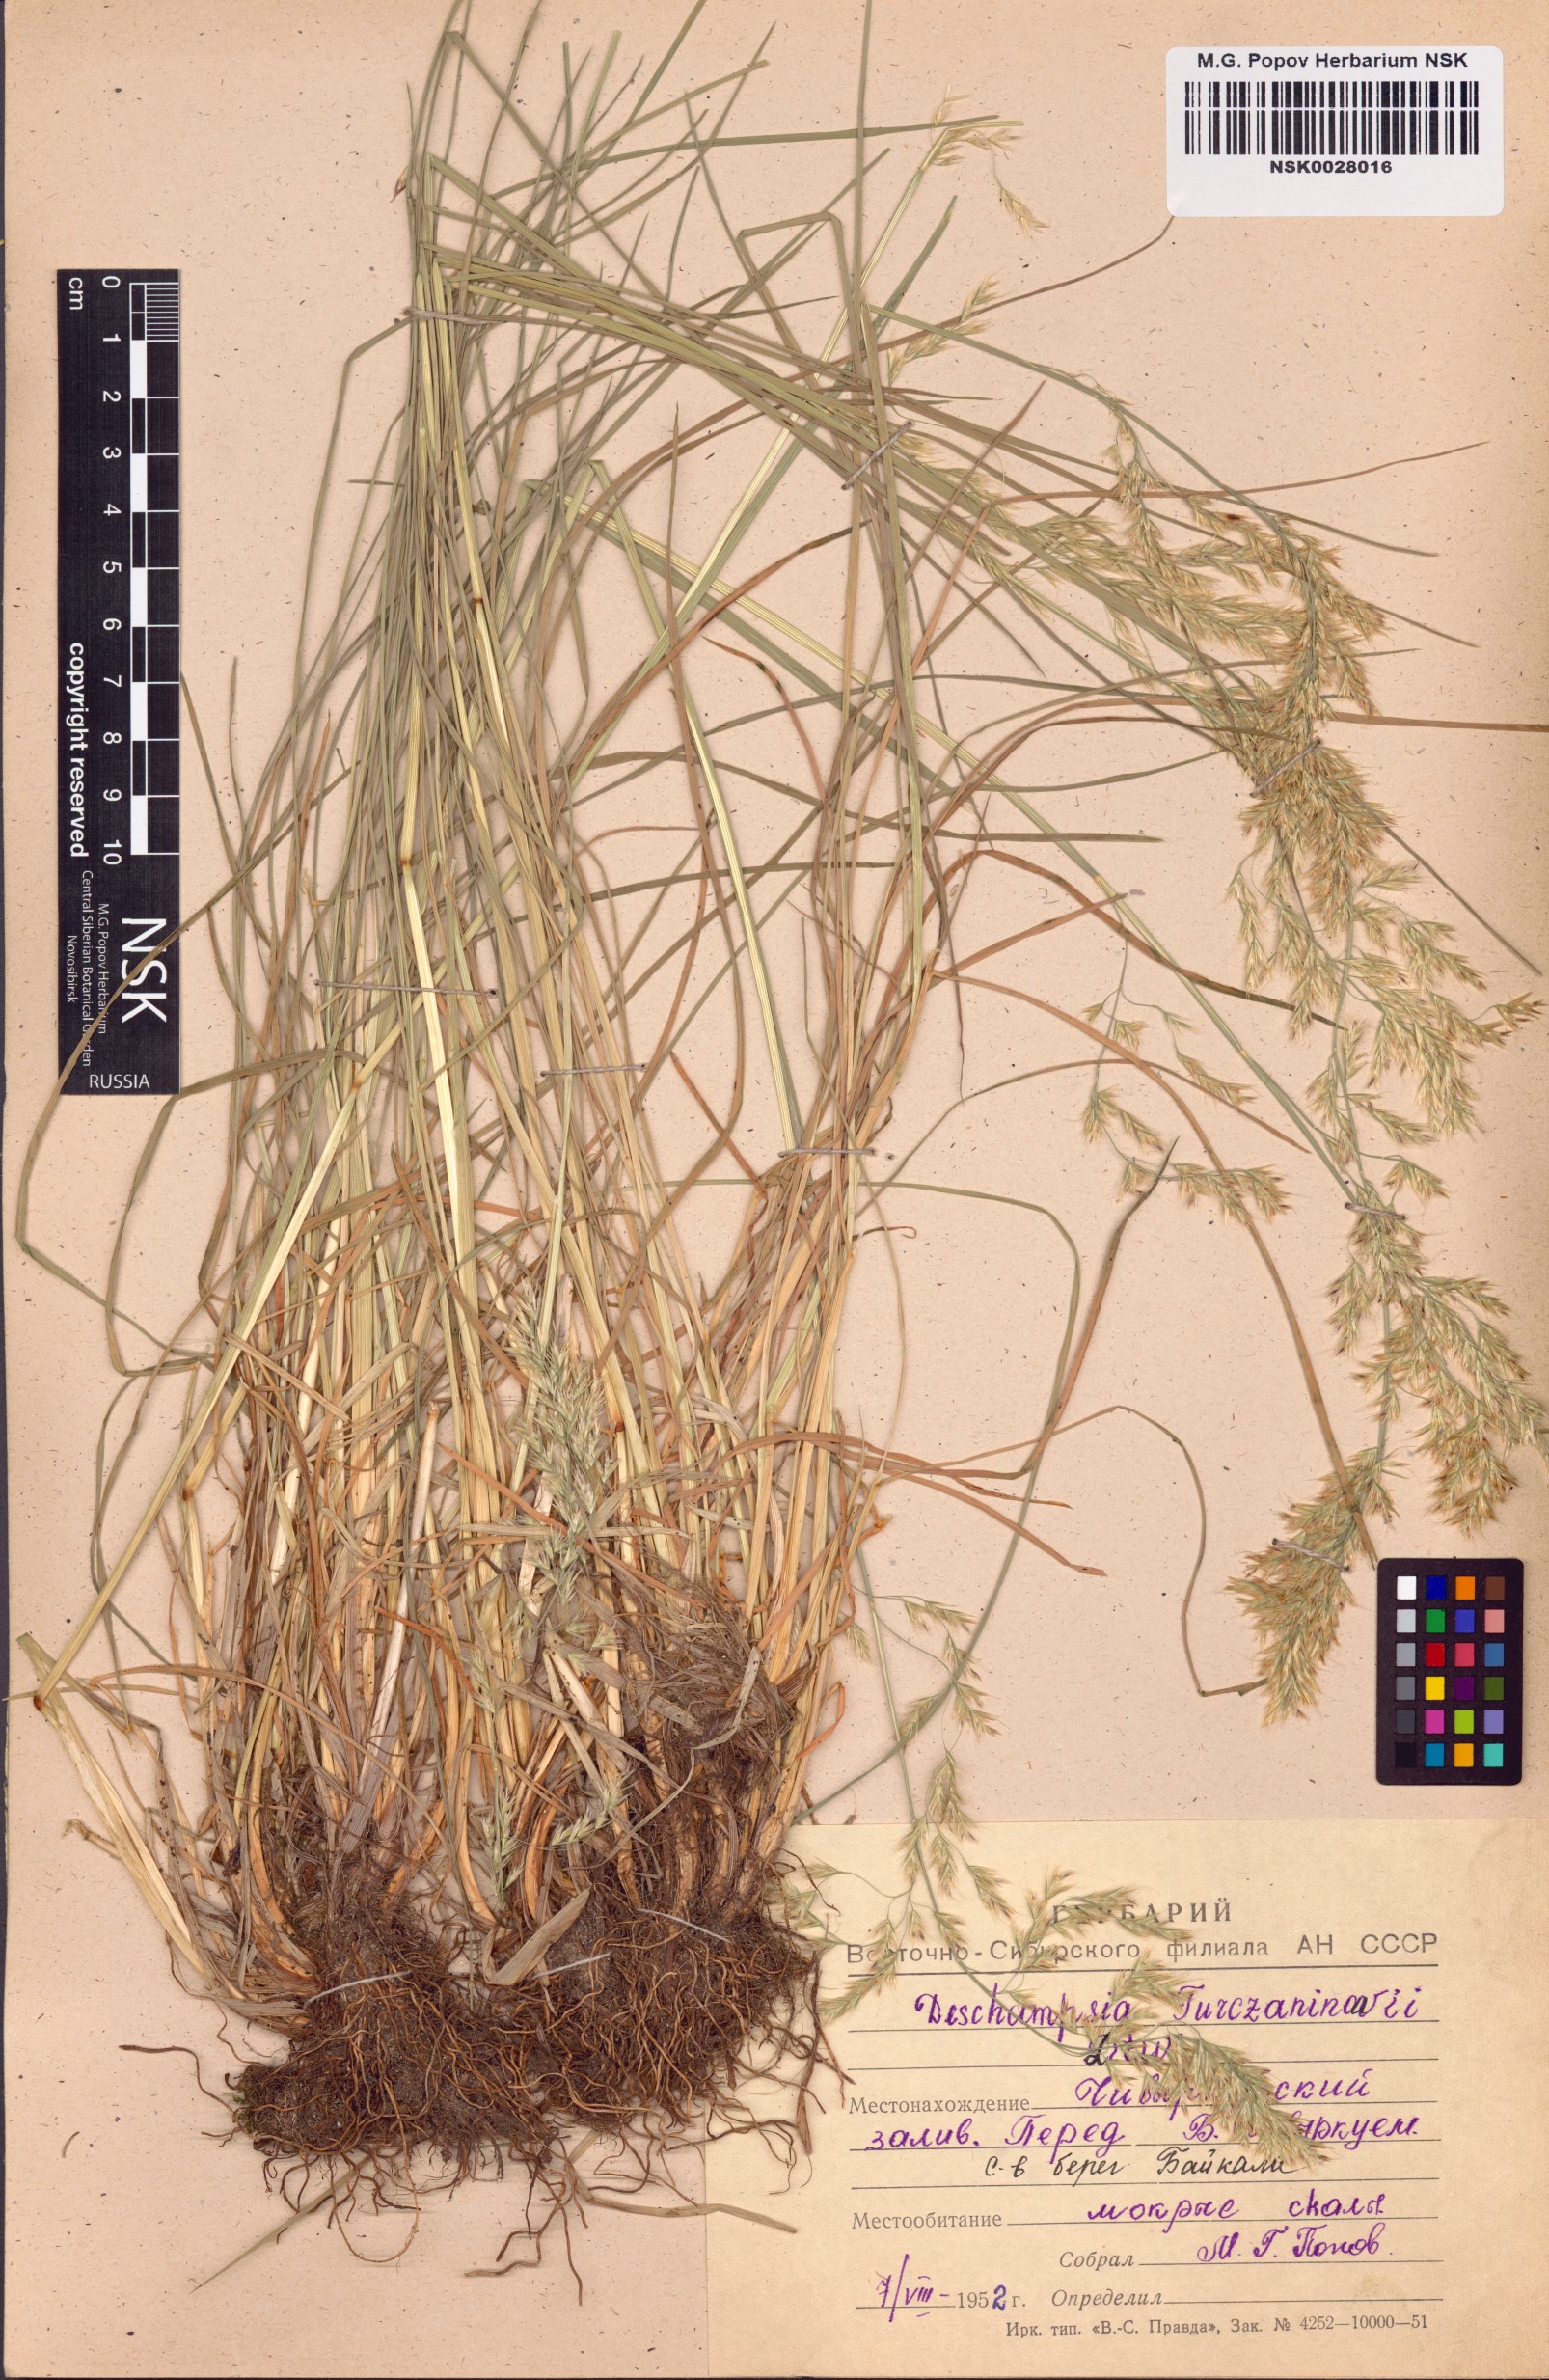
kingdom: Plantae
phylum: Tracheophyta
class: Liliopsida
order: Poales
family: Poaceae
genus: Deschampsia
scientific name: Deschampsia cespitosa
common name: Tufted hair-grass
